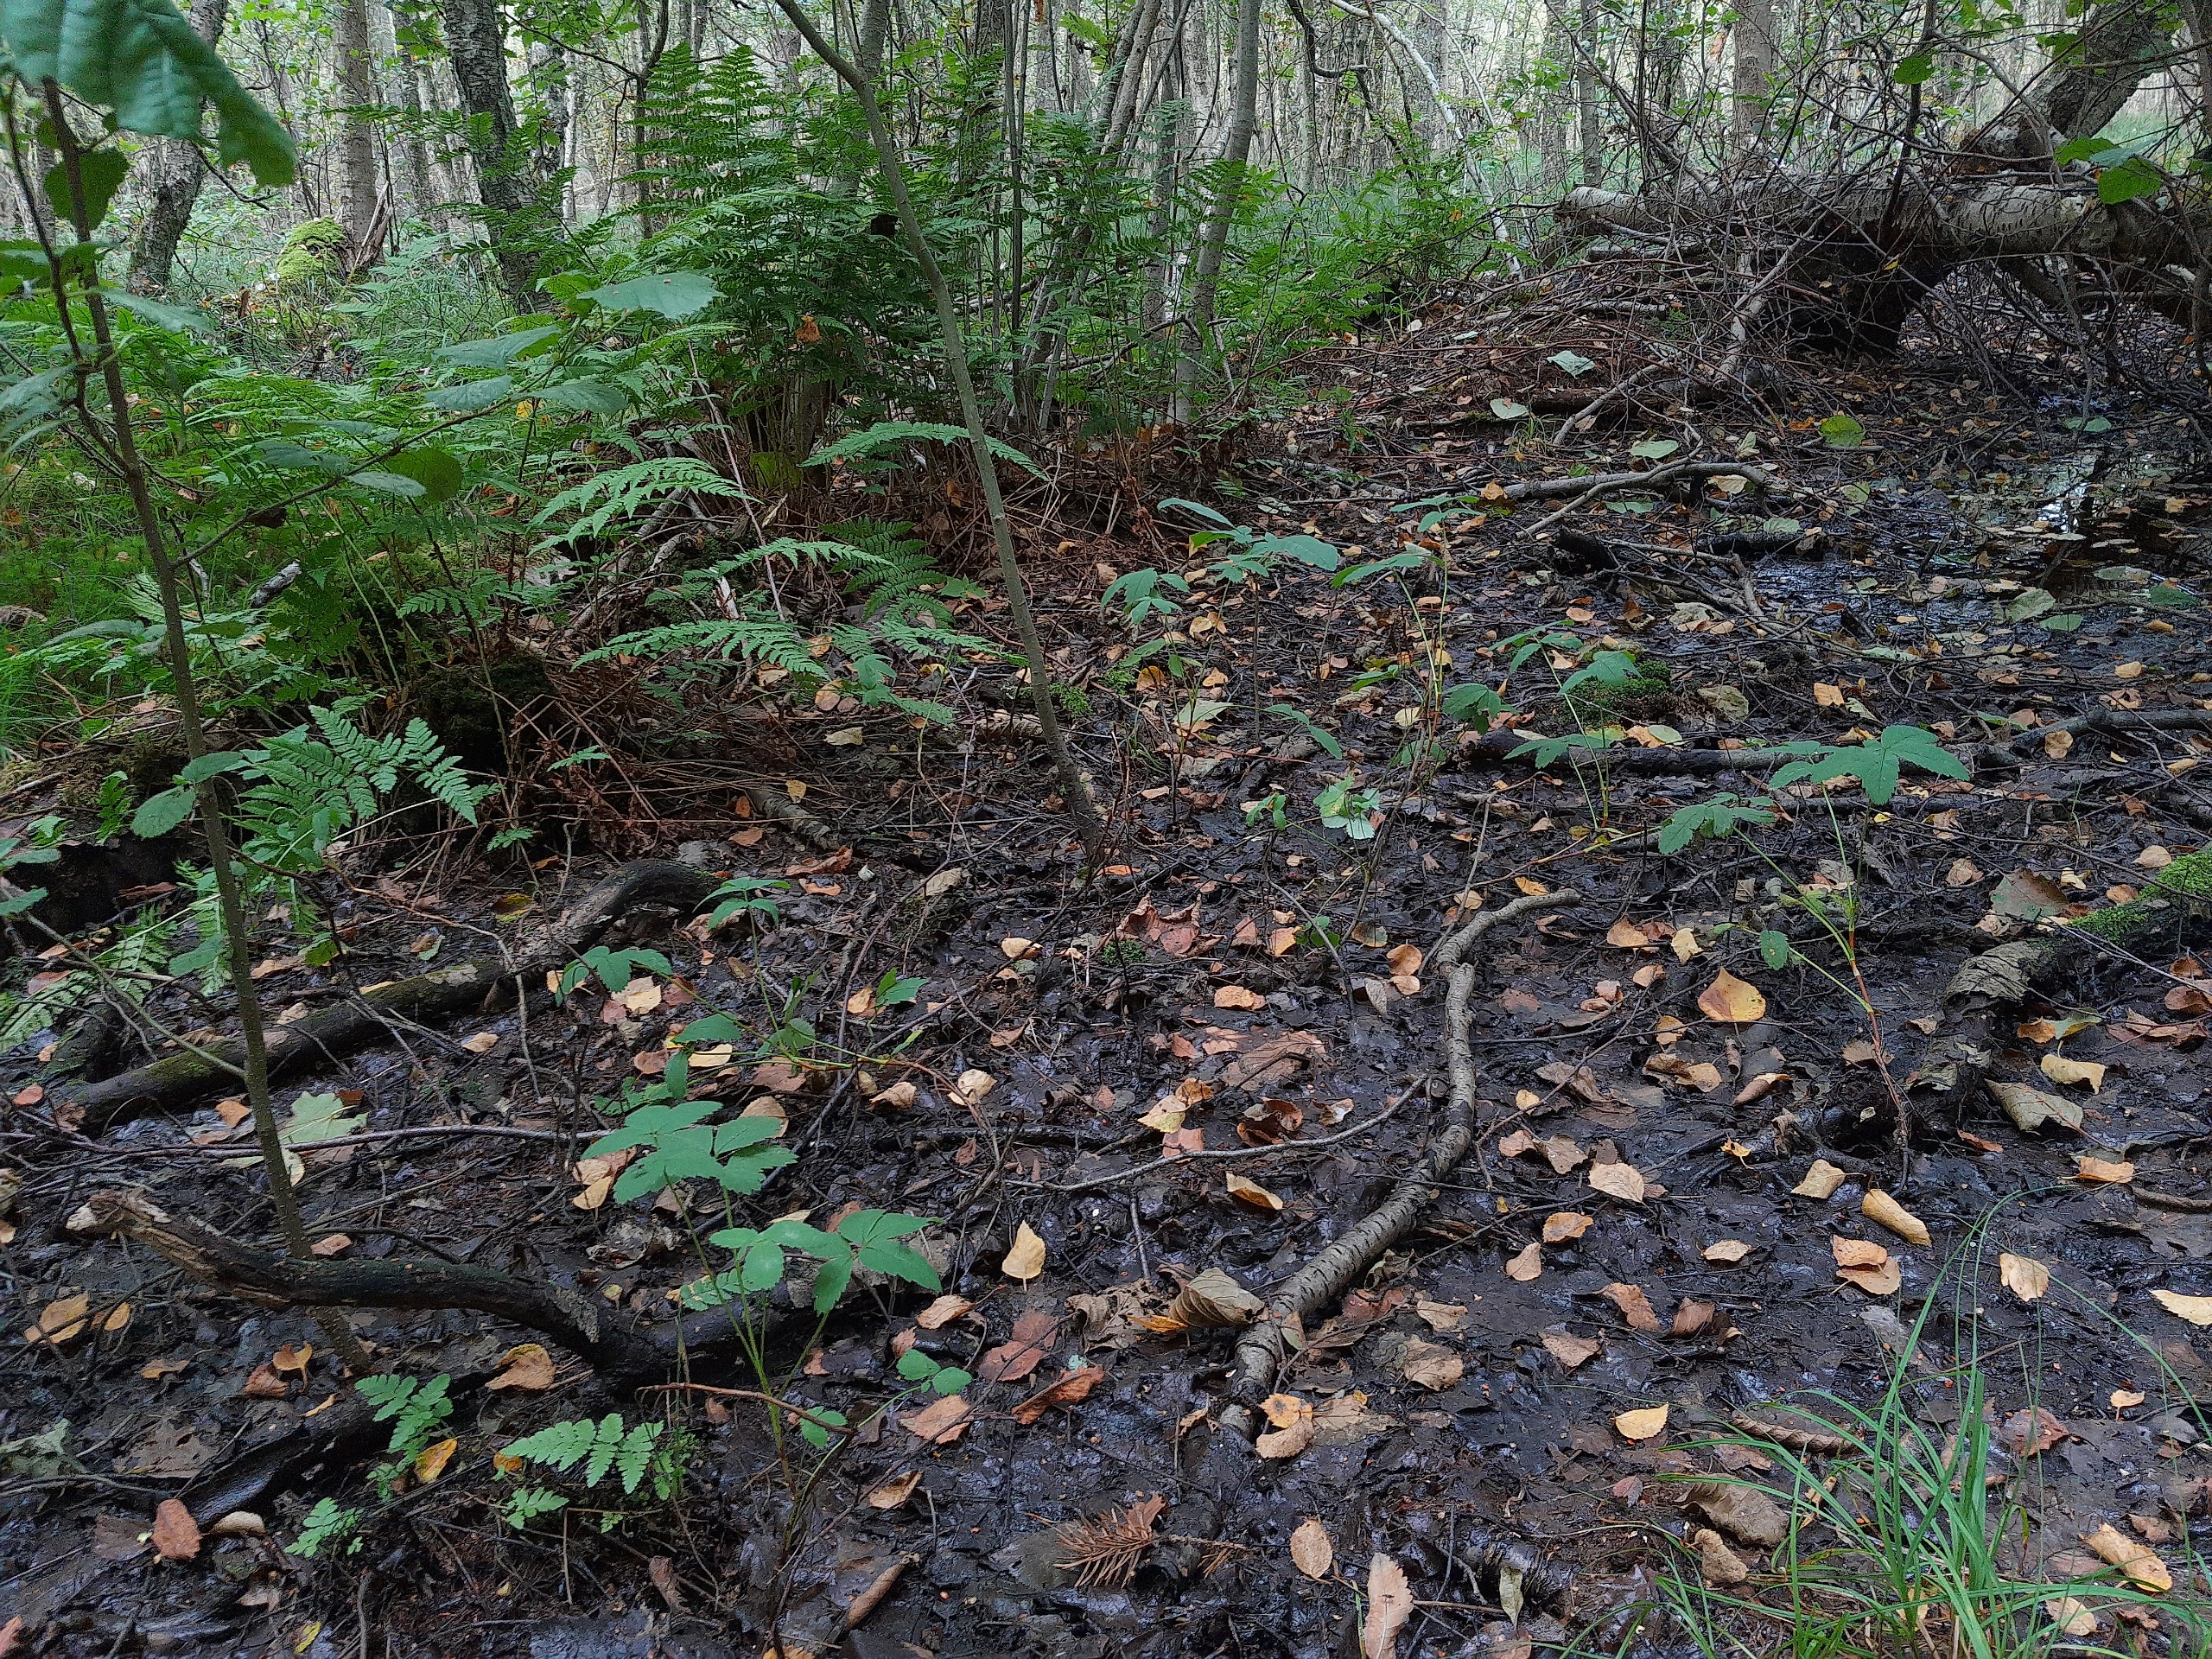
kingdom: Plantae
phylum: Tracheophyta
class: Magnoliopsida
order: Rosales
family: Rosaceae
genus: Comarum
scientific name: Comarum palustre
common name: Kragefod
